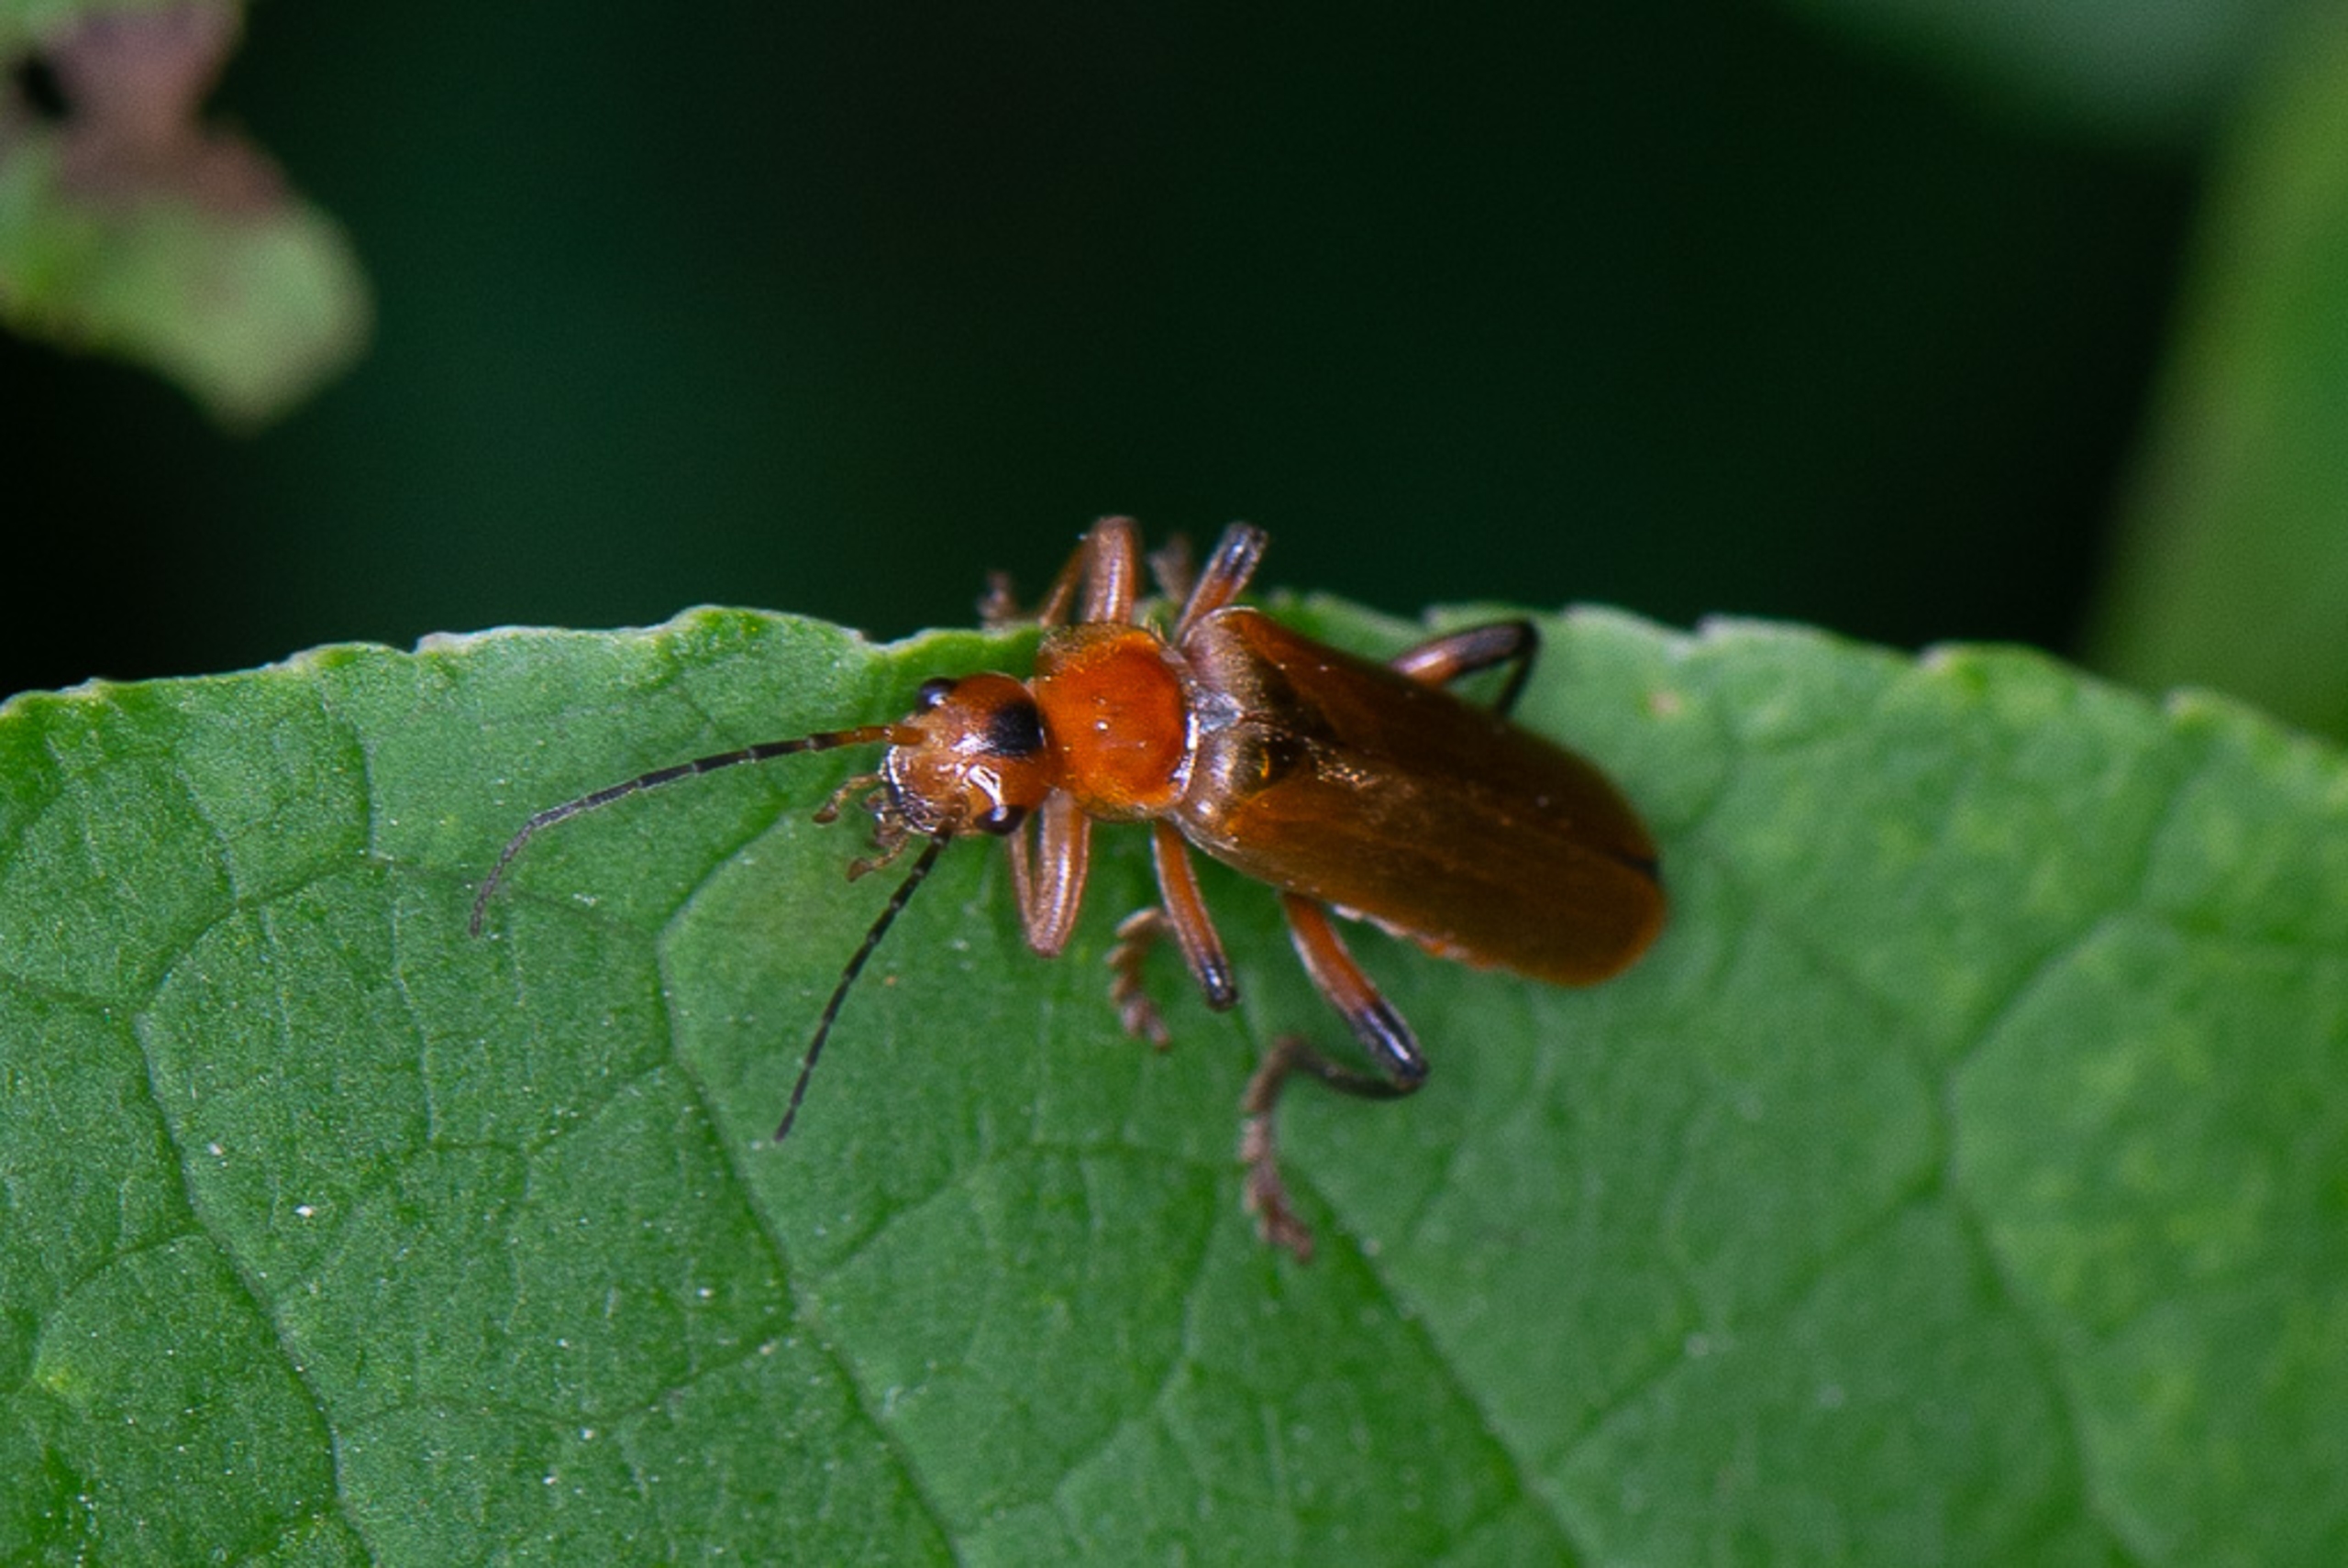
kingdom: Animalia
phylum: Arthropoda
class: Insecta
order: Coleoptera
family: Cantharidae
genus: Cantharis
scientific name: Cantharis livida
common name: Gul blødvinge
